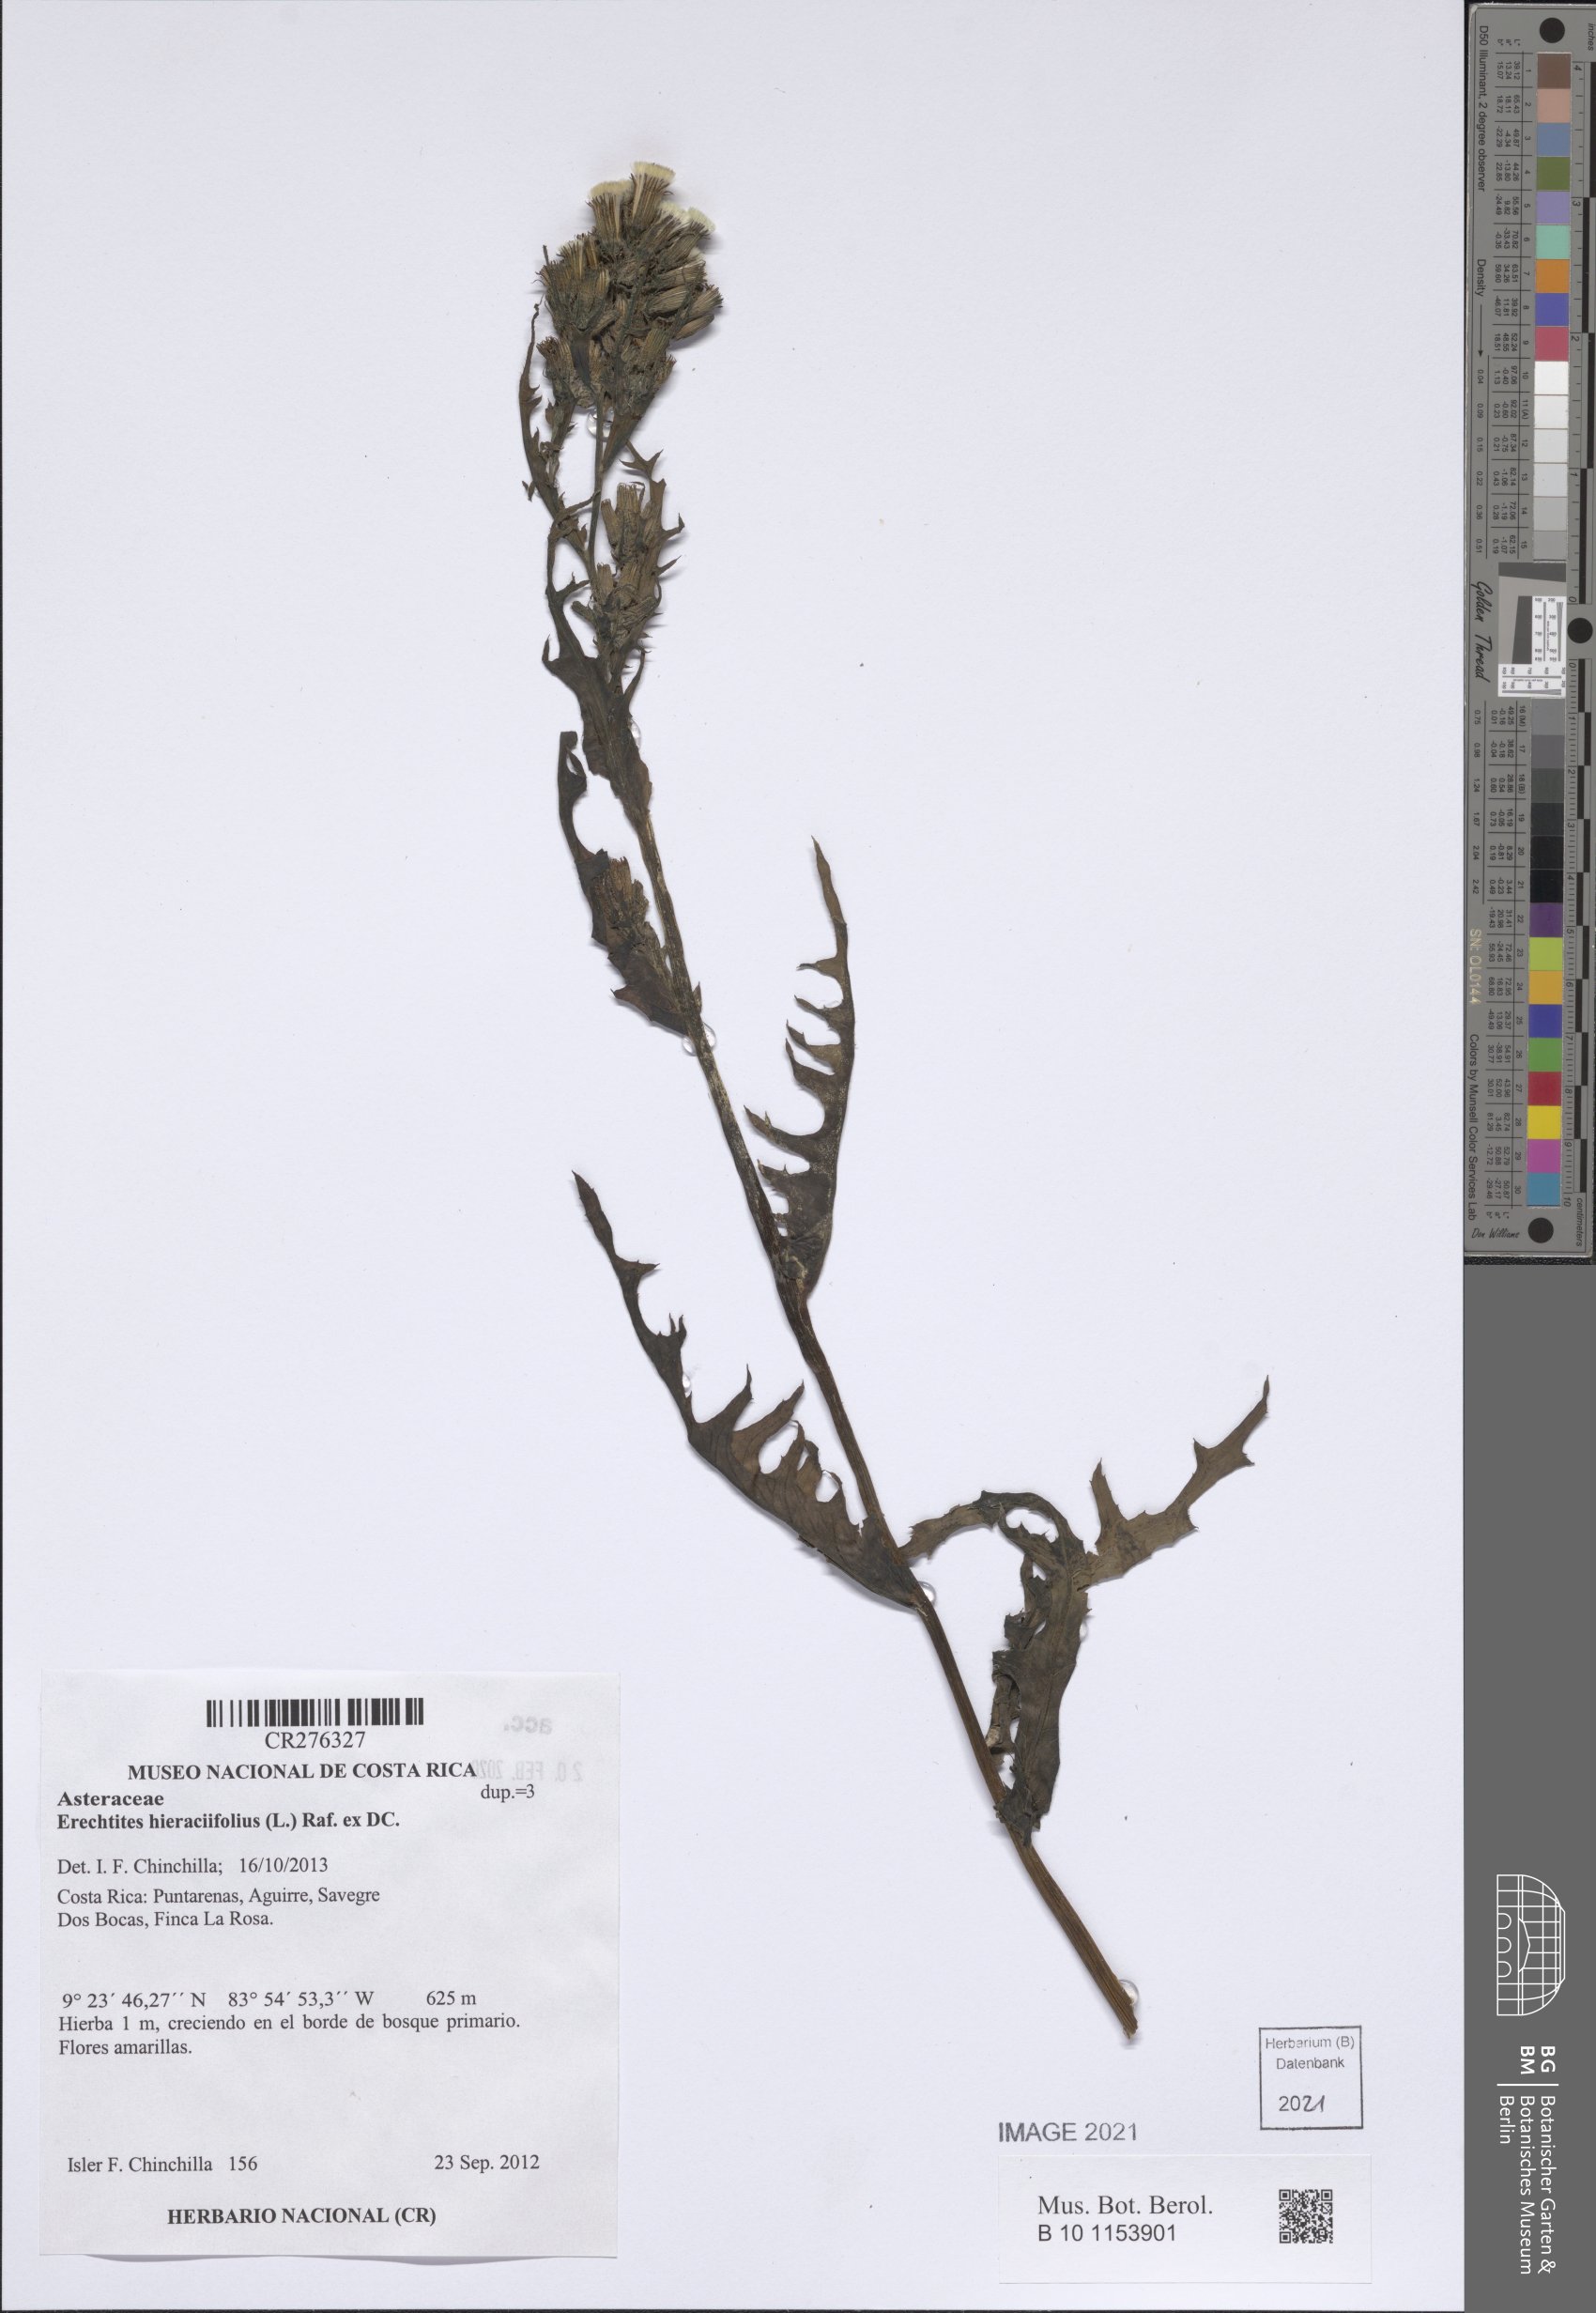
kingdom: Plantae
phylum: Tracheophyta
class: Magnoliopsida
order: Asterales
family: Asteraceae
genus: Erechtites
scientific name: Erechtites hieraciifolius
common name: American burnweed
